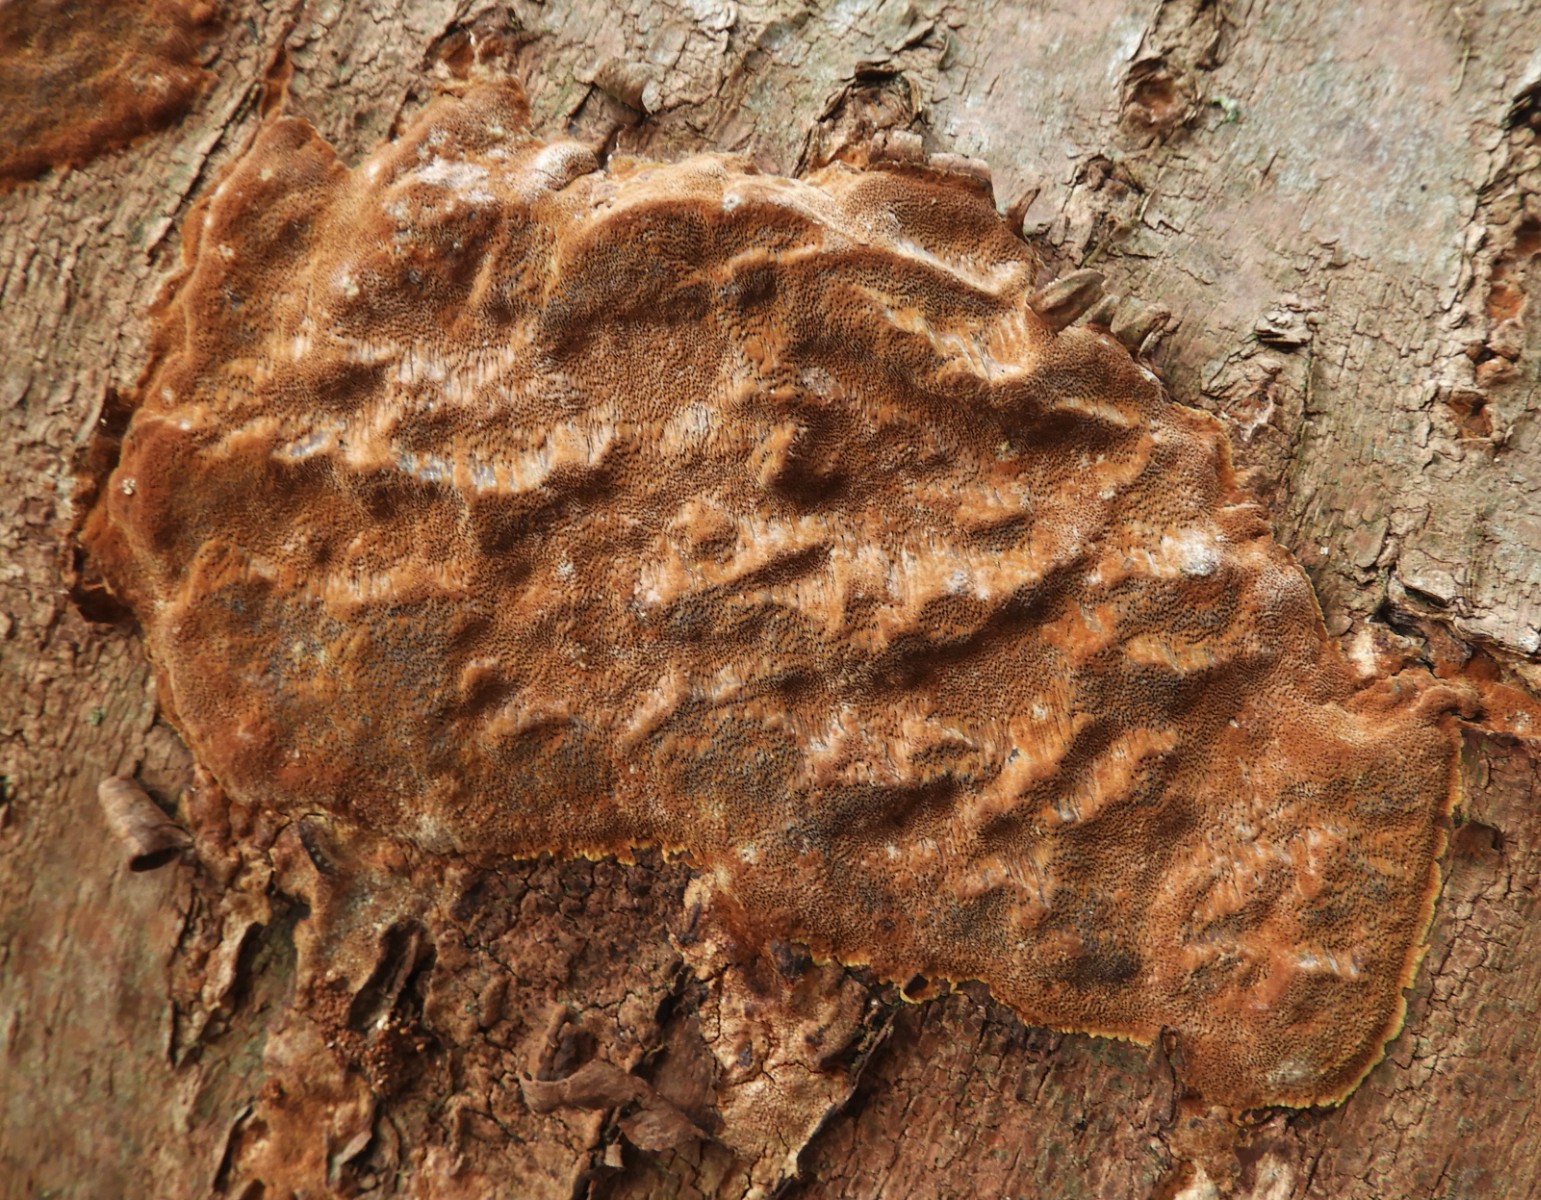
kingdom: Fungi
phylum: Basidiomycota
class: Agaricomycetes
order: Hymenochaetales
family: Hymenochaetaceae
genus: Fuscoporia
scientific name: Fuscoporia ferrea
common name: skorpe-ildporesvamp
